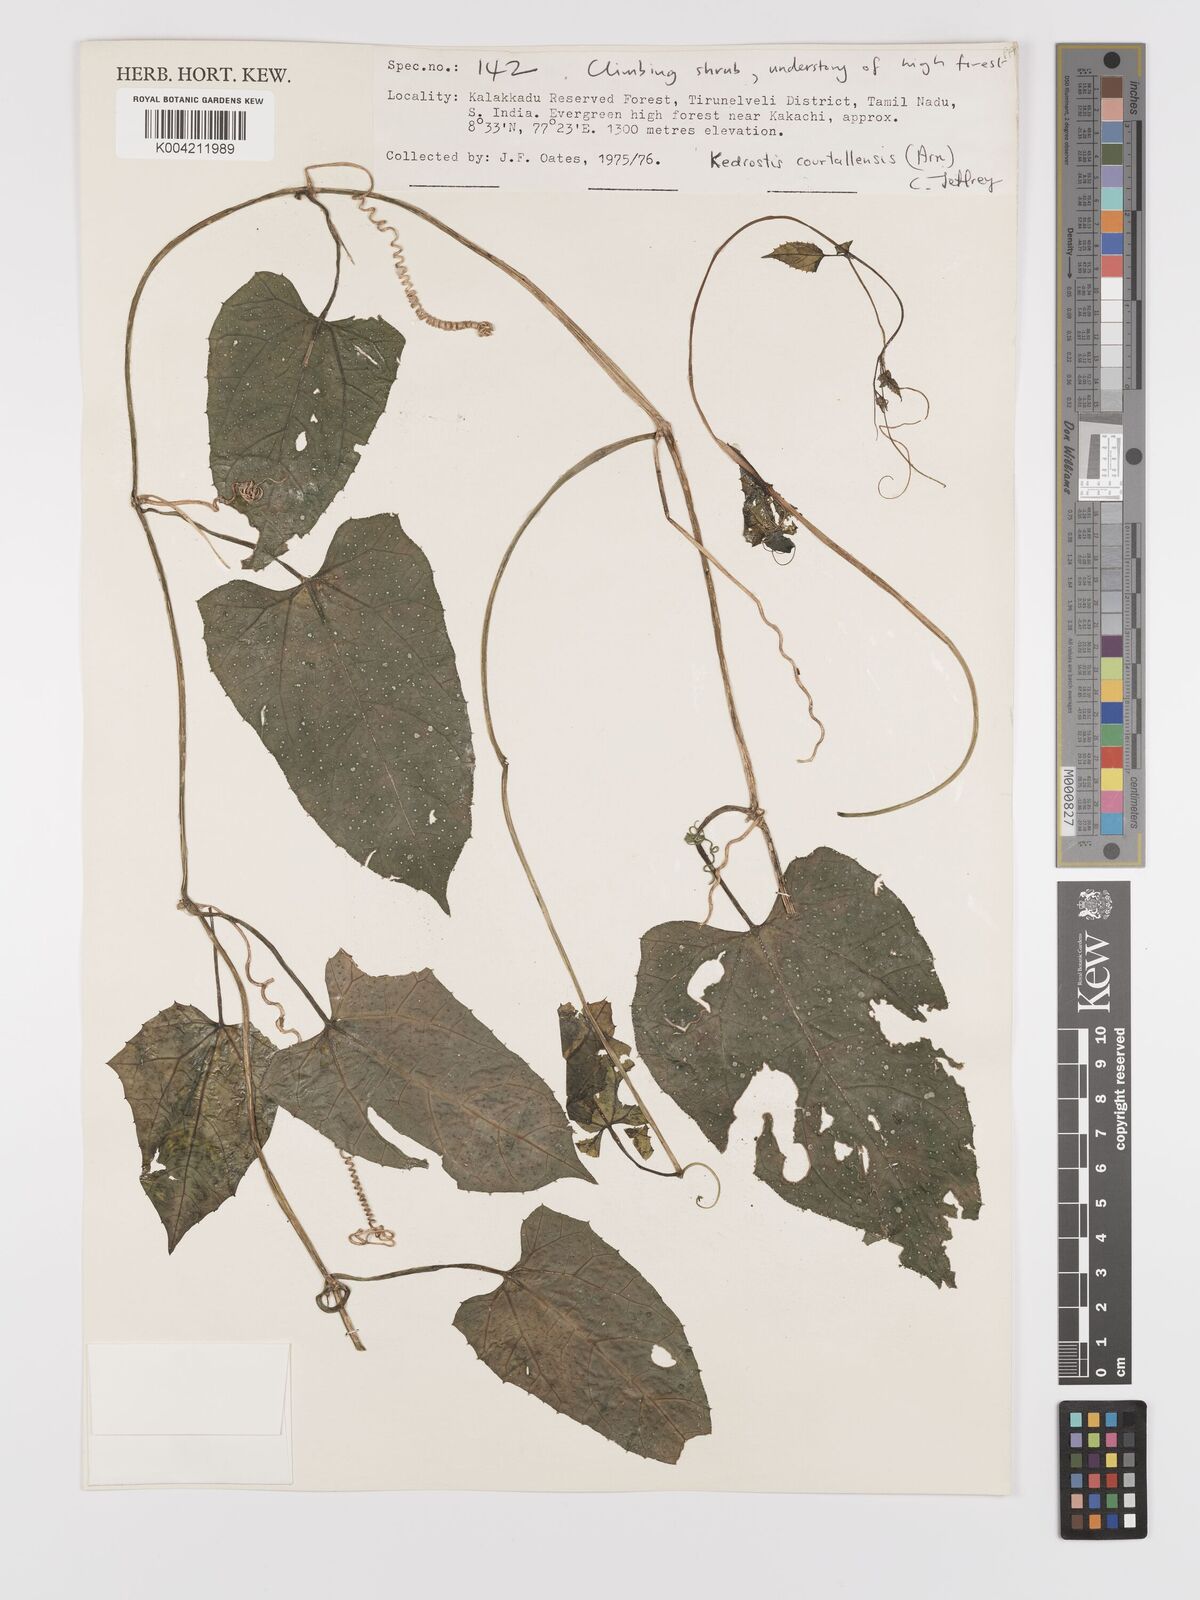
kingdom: Plantae
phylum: Tracheophyta
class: Magnoliopsida
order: Cucurbitales
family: Cucurbitaceae
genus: Kedrostis
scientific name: Kedrostis courtallensis
